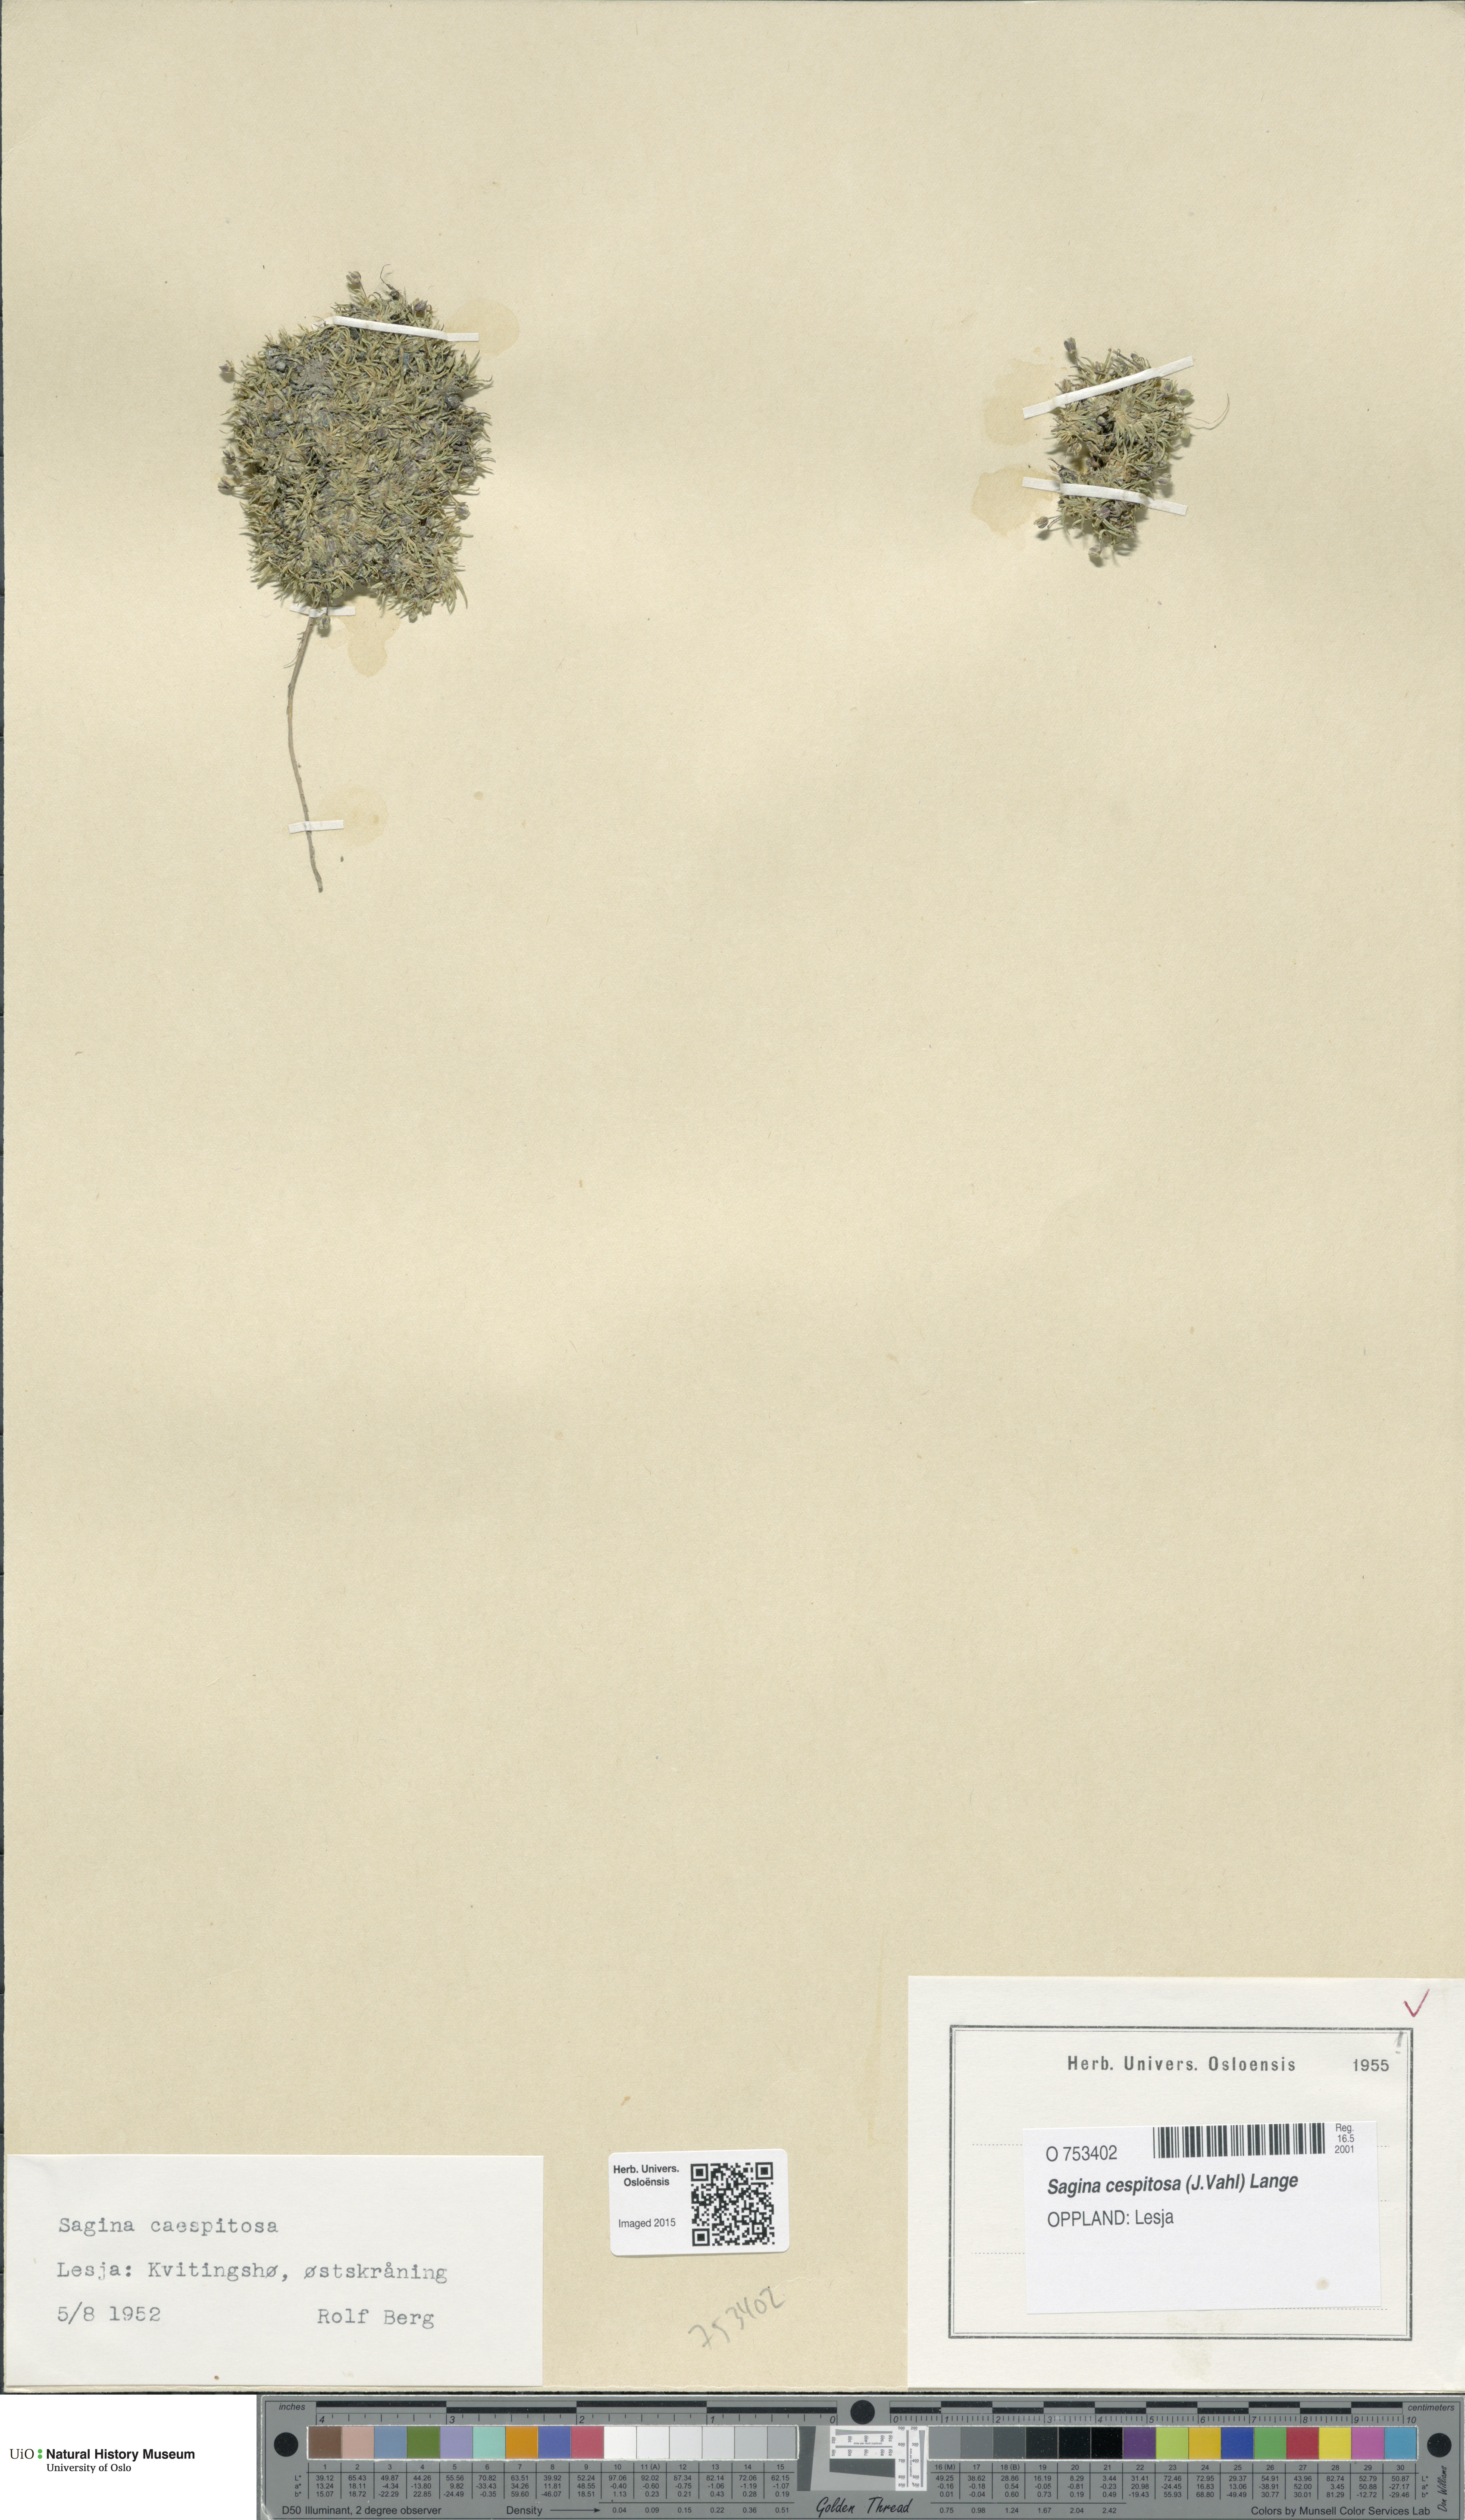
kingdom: Plantae
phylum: Tracheophyta
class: Magnoliopsida
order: Caryophyllales
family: Caryophyllaceae
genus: Sagina
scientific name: Sagina caespitosa
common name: Tufted pearlwort
